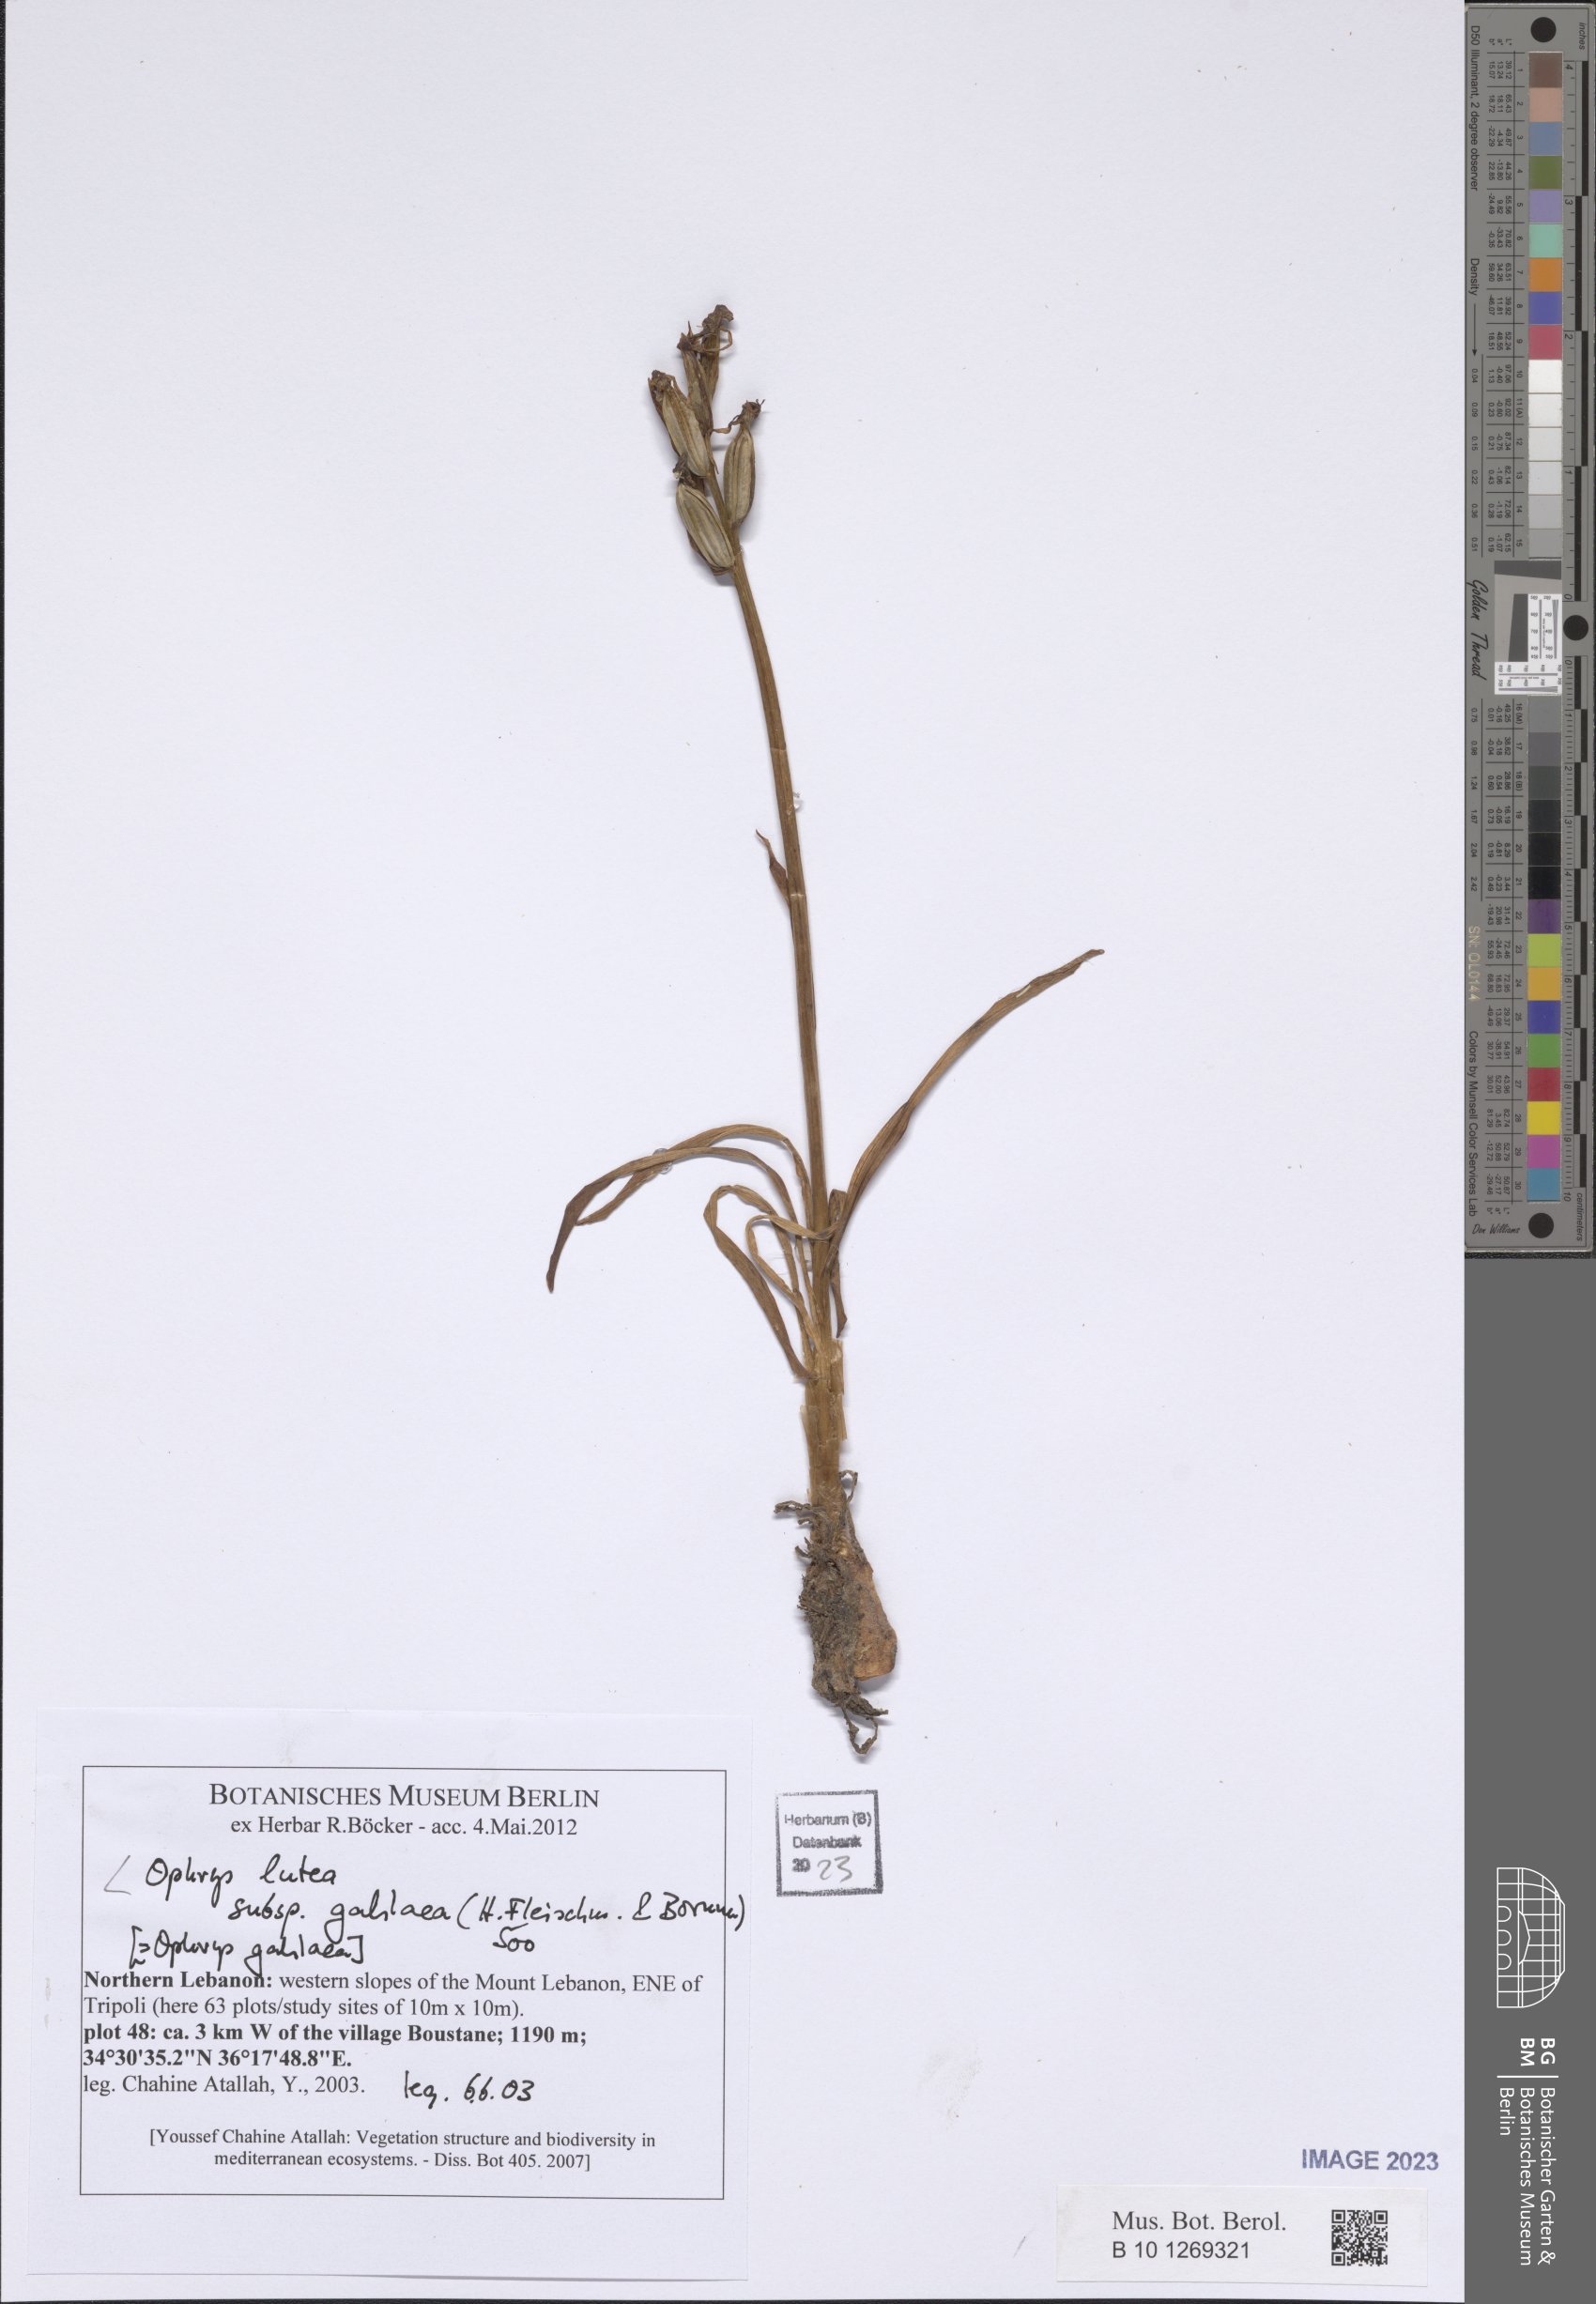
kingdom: Plantae
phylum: Tracheophyta
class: Liliopsida
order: Asparagales
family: Orchidaceae
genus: Ophrys
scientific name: Ophrys lutea
